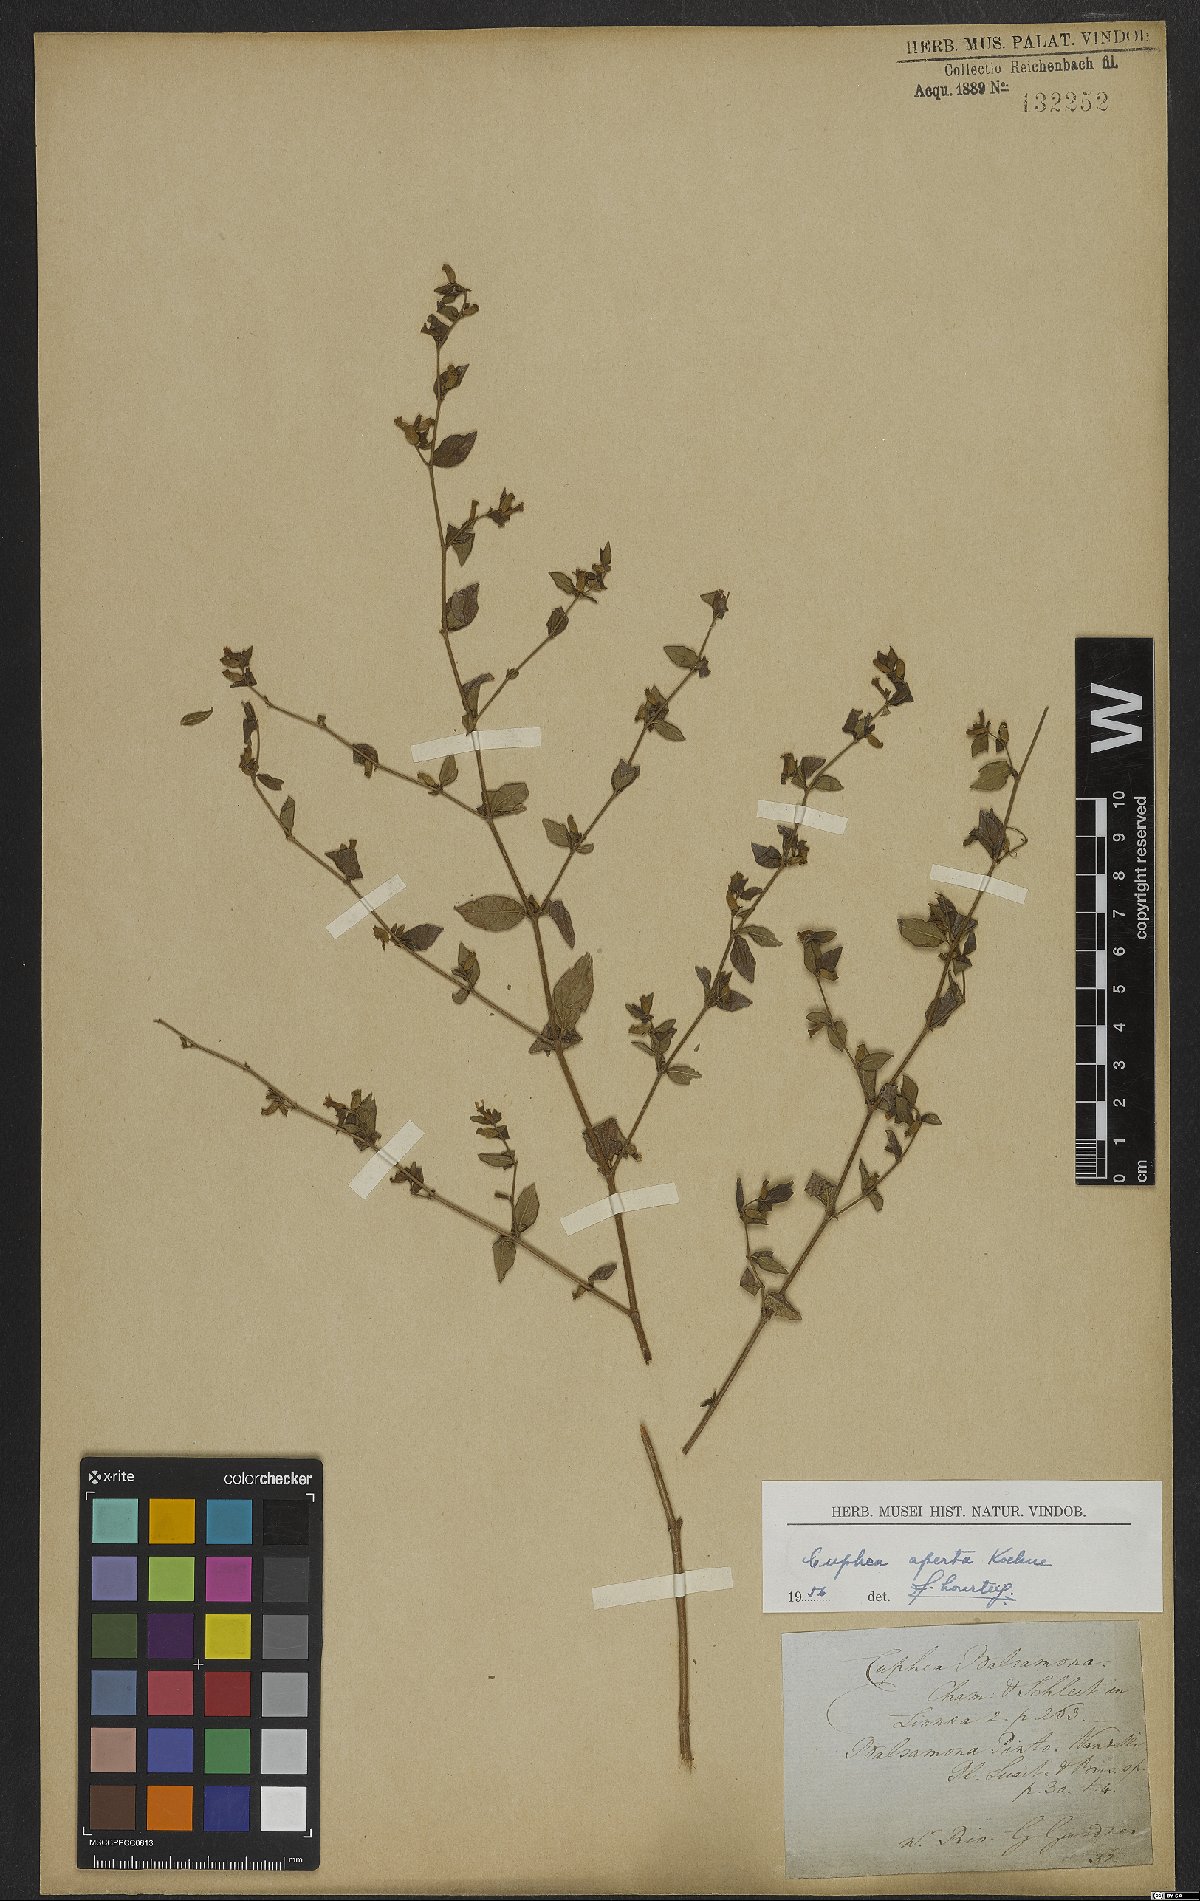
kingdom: Plantae
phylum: Tracheophyta
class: Magnoliopsida
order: Myrtales
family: Lythraceae
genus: Cuphea
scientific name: Cuphea aperta
